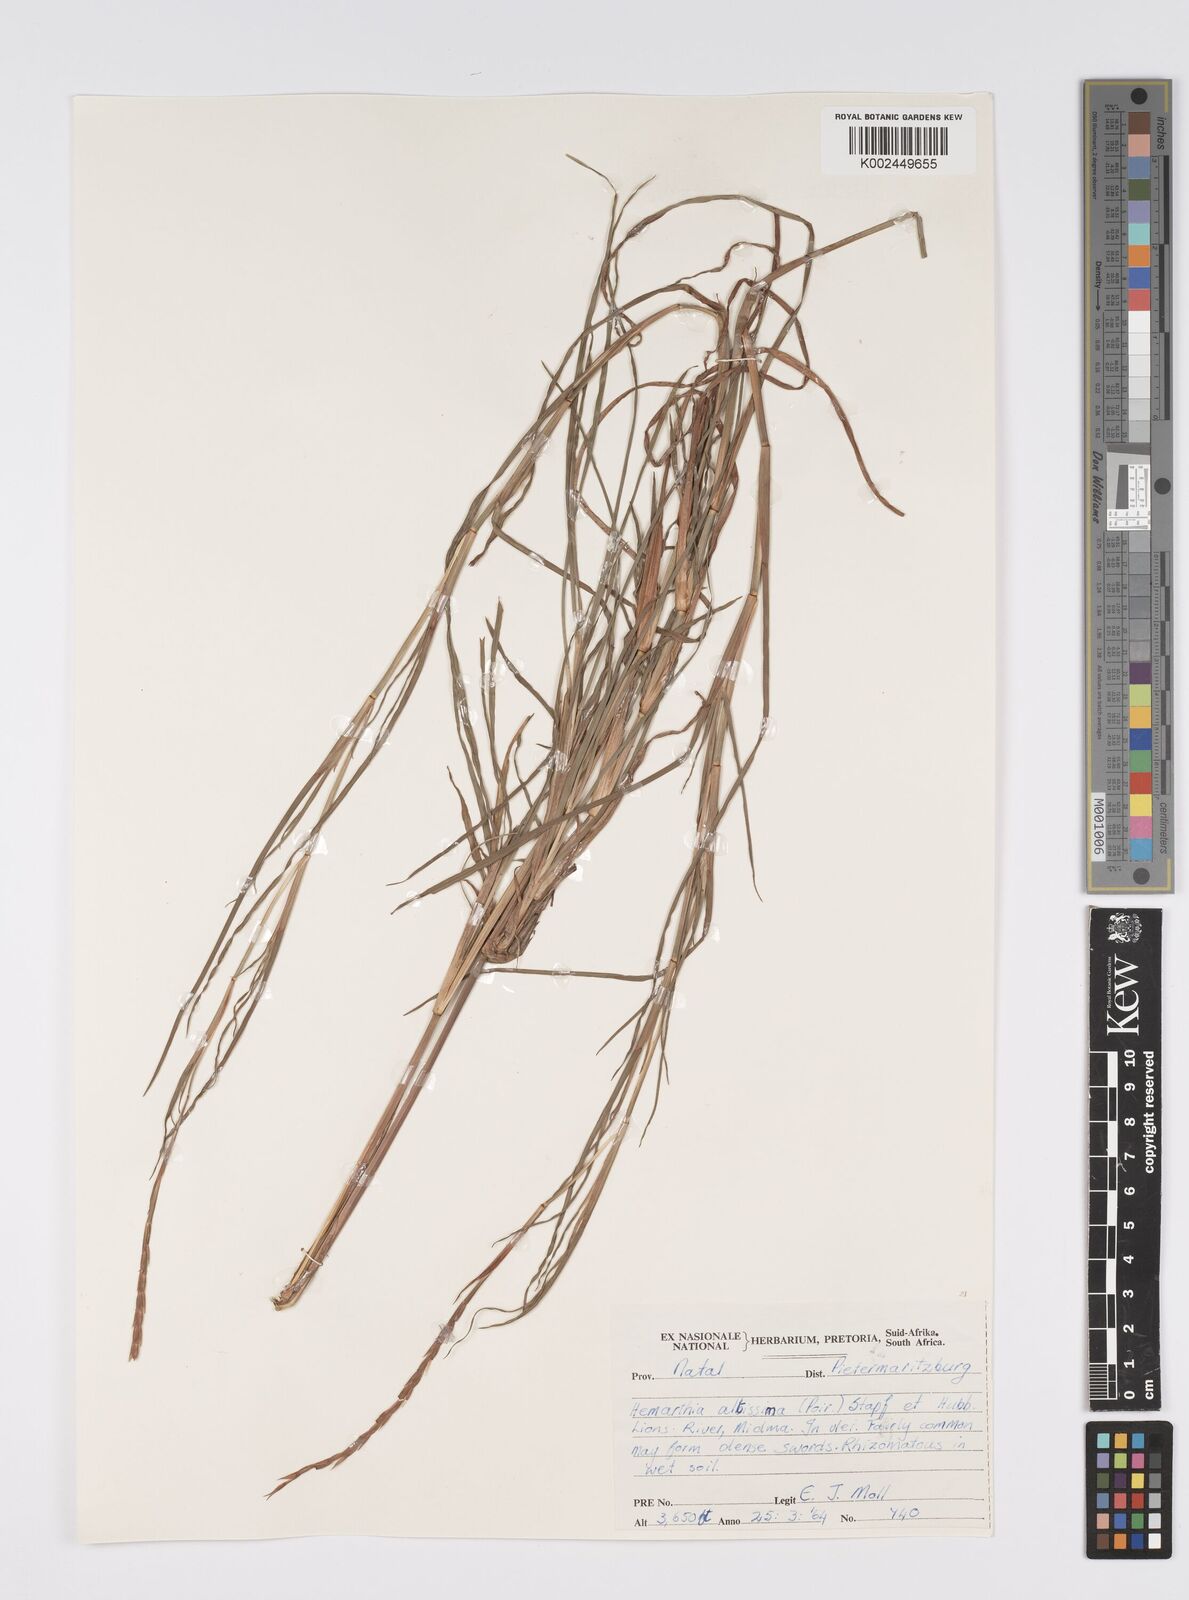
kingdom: Plantae
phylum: Tracheophyta
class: Liliopsida
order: Poales
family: Poaceae
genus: Hemarthria
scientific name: Hemarthria altissima
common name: African jointgrass
